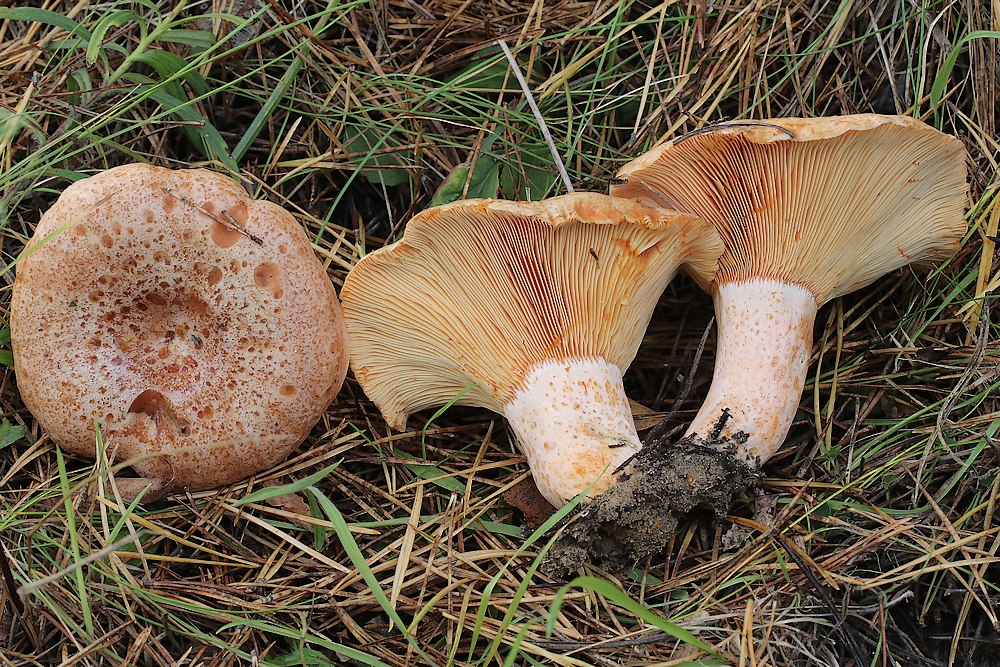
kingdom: Fungi
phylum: Basidiomycota
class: Agaricomycetes
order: Russulales
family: Russulaceae
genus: Lactarius
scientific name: Lactarius deliciosus
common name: velsmagende mælkehat
